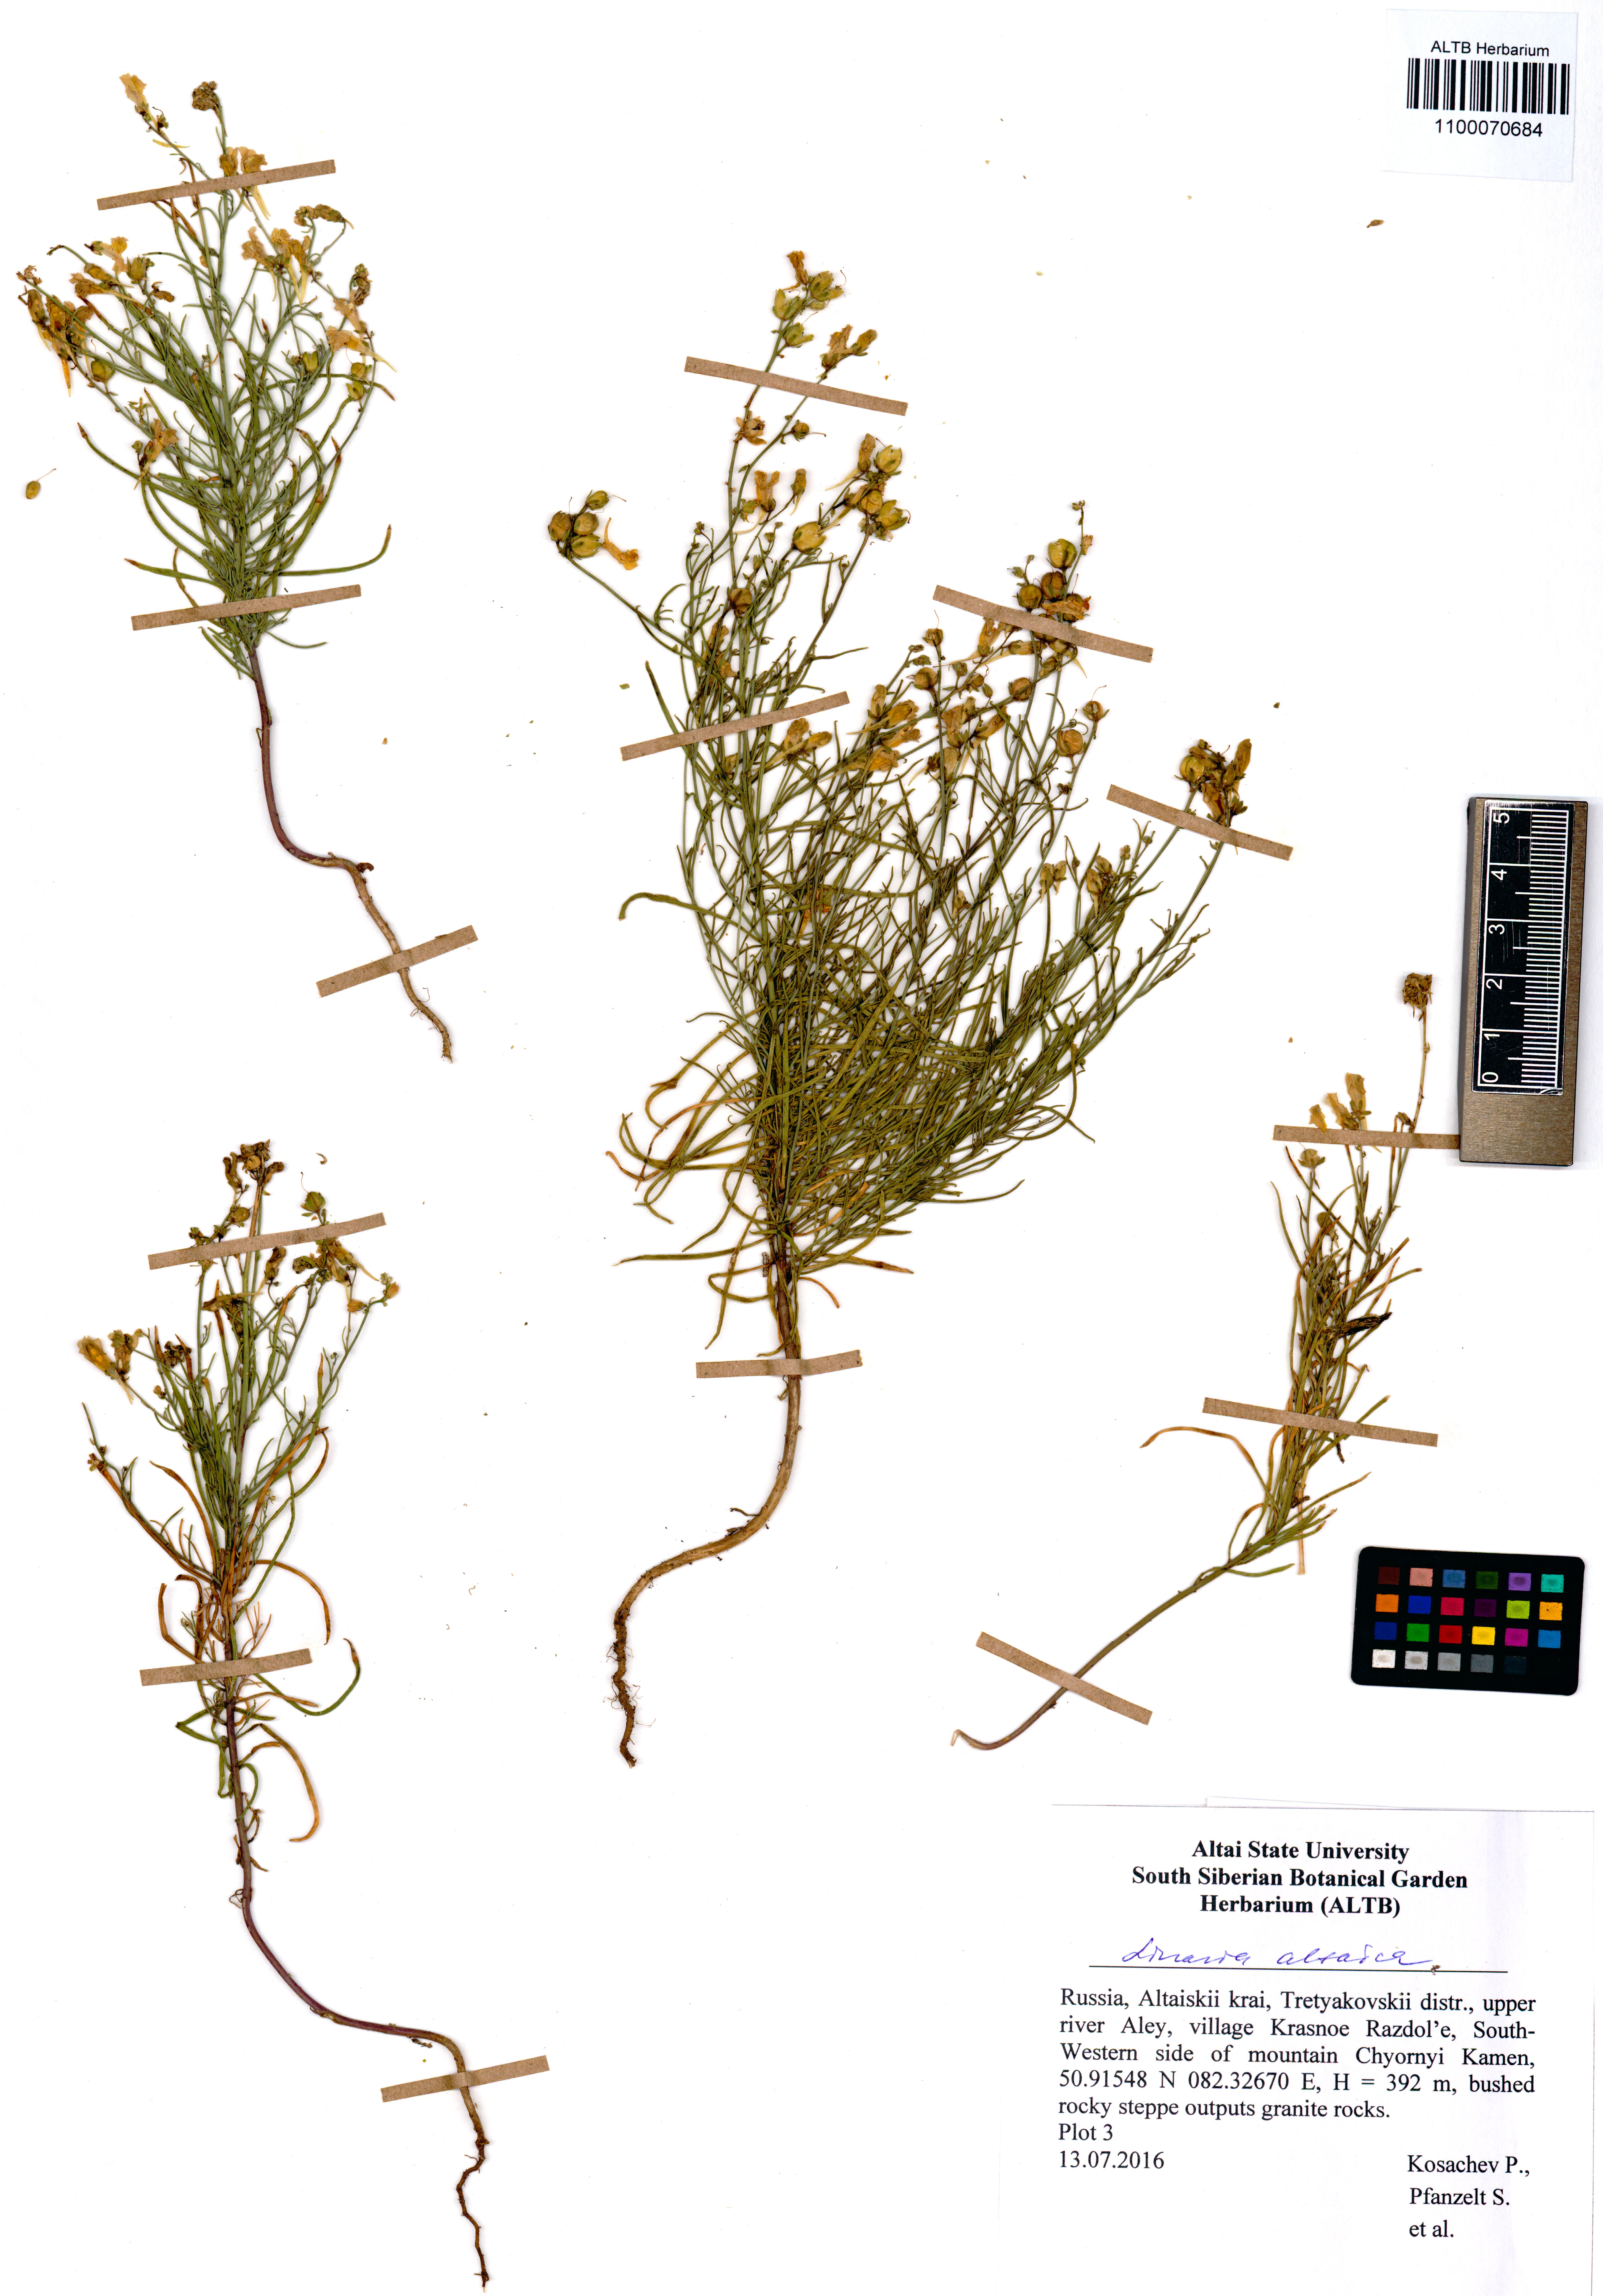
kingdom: Plantae
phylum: Tracheophyta
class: Magnoliopsida
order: Lamiales
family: Plantaginaceae
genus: Linaria
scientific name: Linaria altaica
